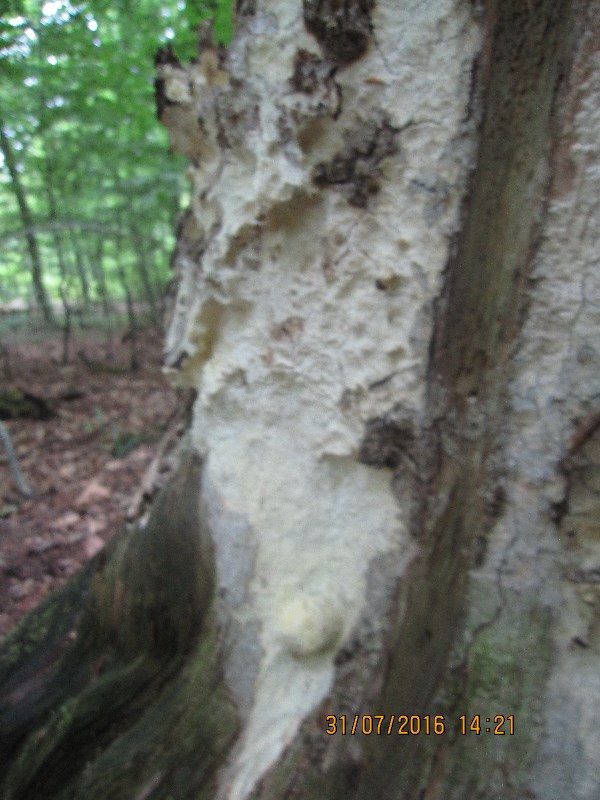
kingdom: Fungi
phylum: Basidiomycota
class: Agaricomycetes
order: Polyporales
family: Fomitopsidaceae
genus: Daedalea
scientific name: Daedalea xantha
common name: gul sejporesvamp
